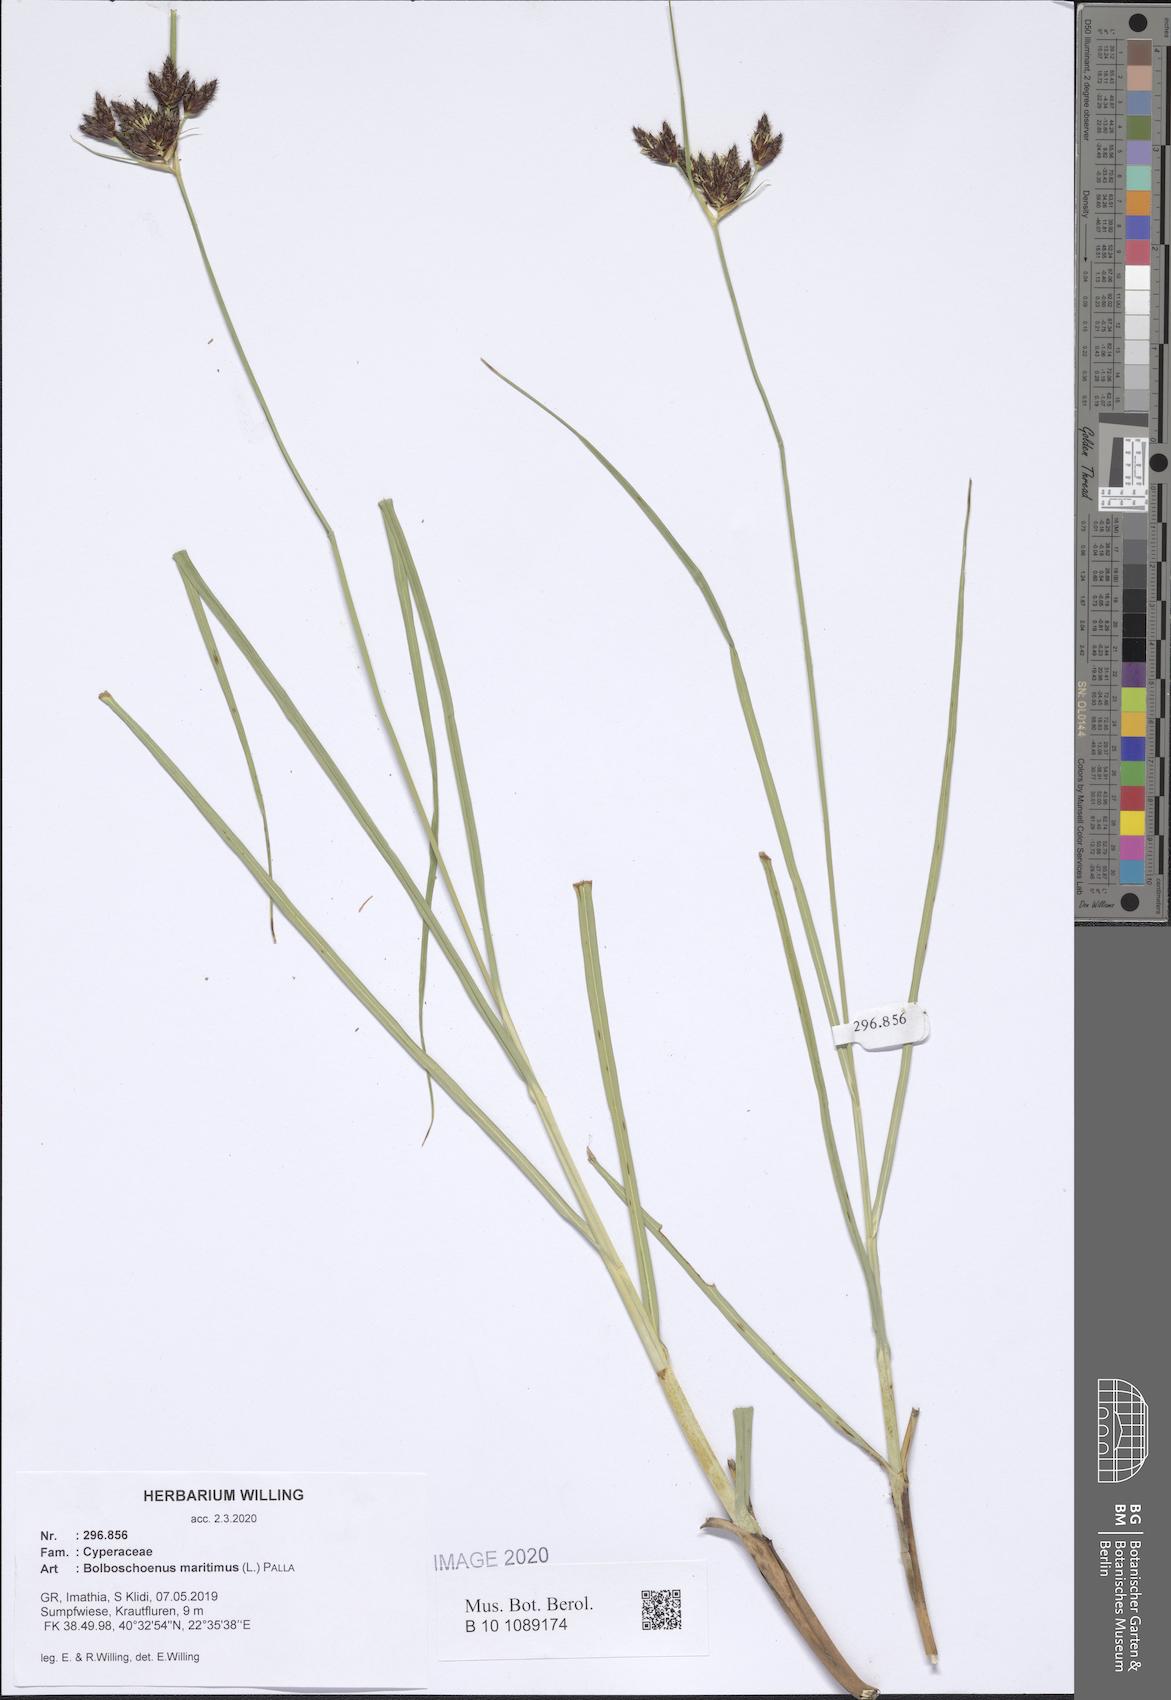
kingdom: Plantae
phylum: Tracheophyta
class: Liliopsida
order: Poales
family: Cyperaceae
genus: Bolboschoenus
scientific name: Bolboschoenus maritimus
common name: Sea club-rush
